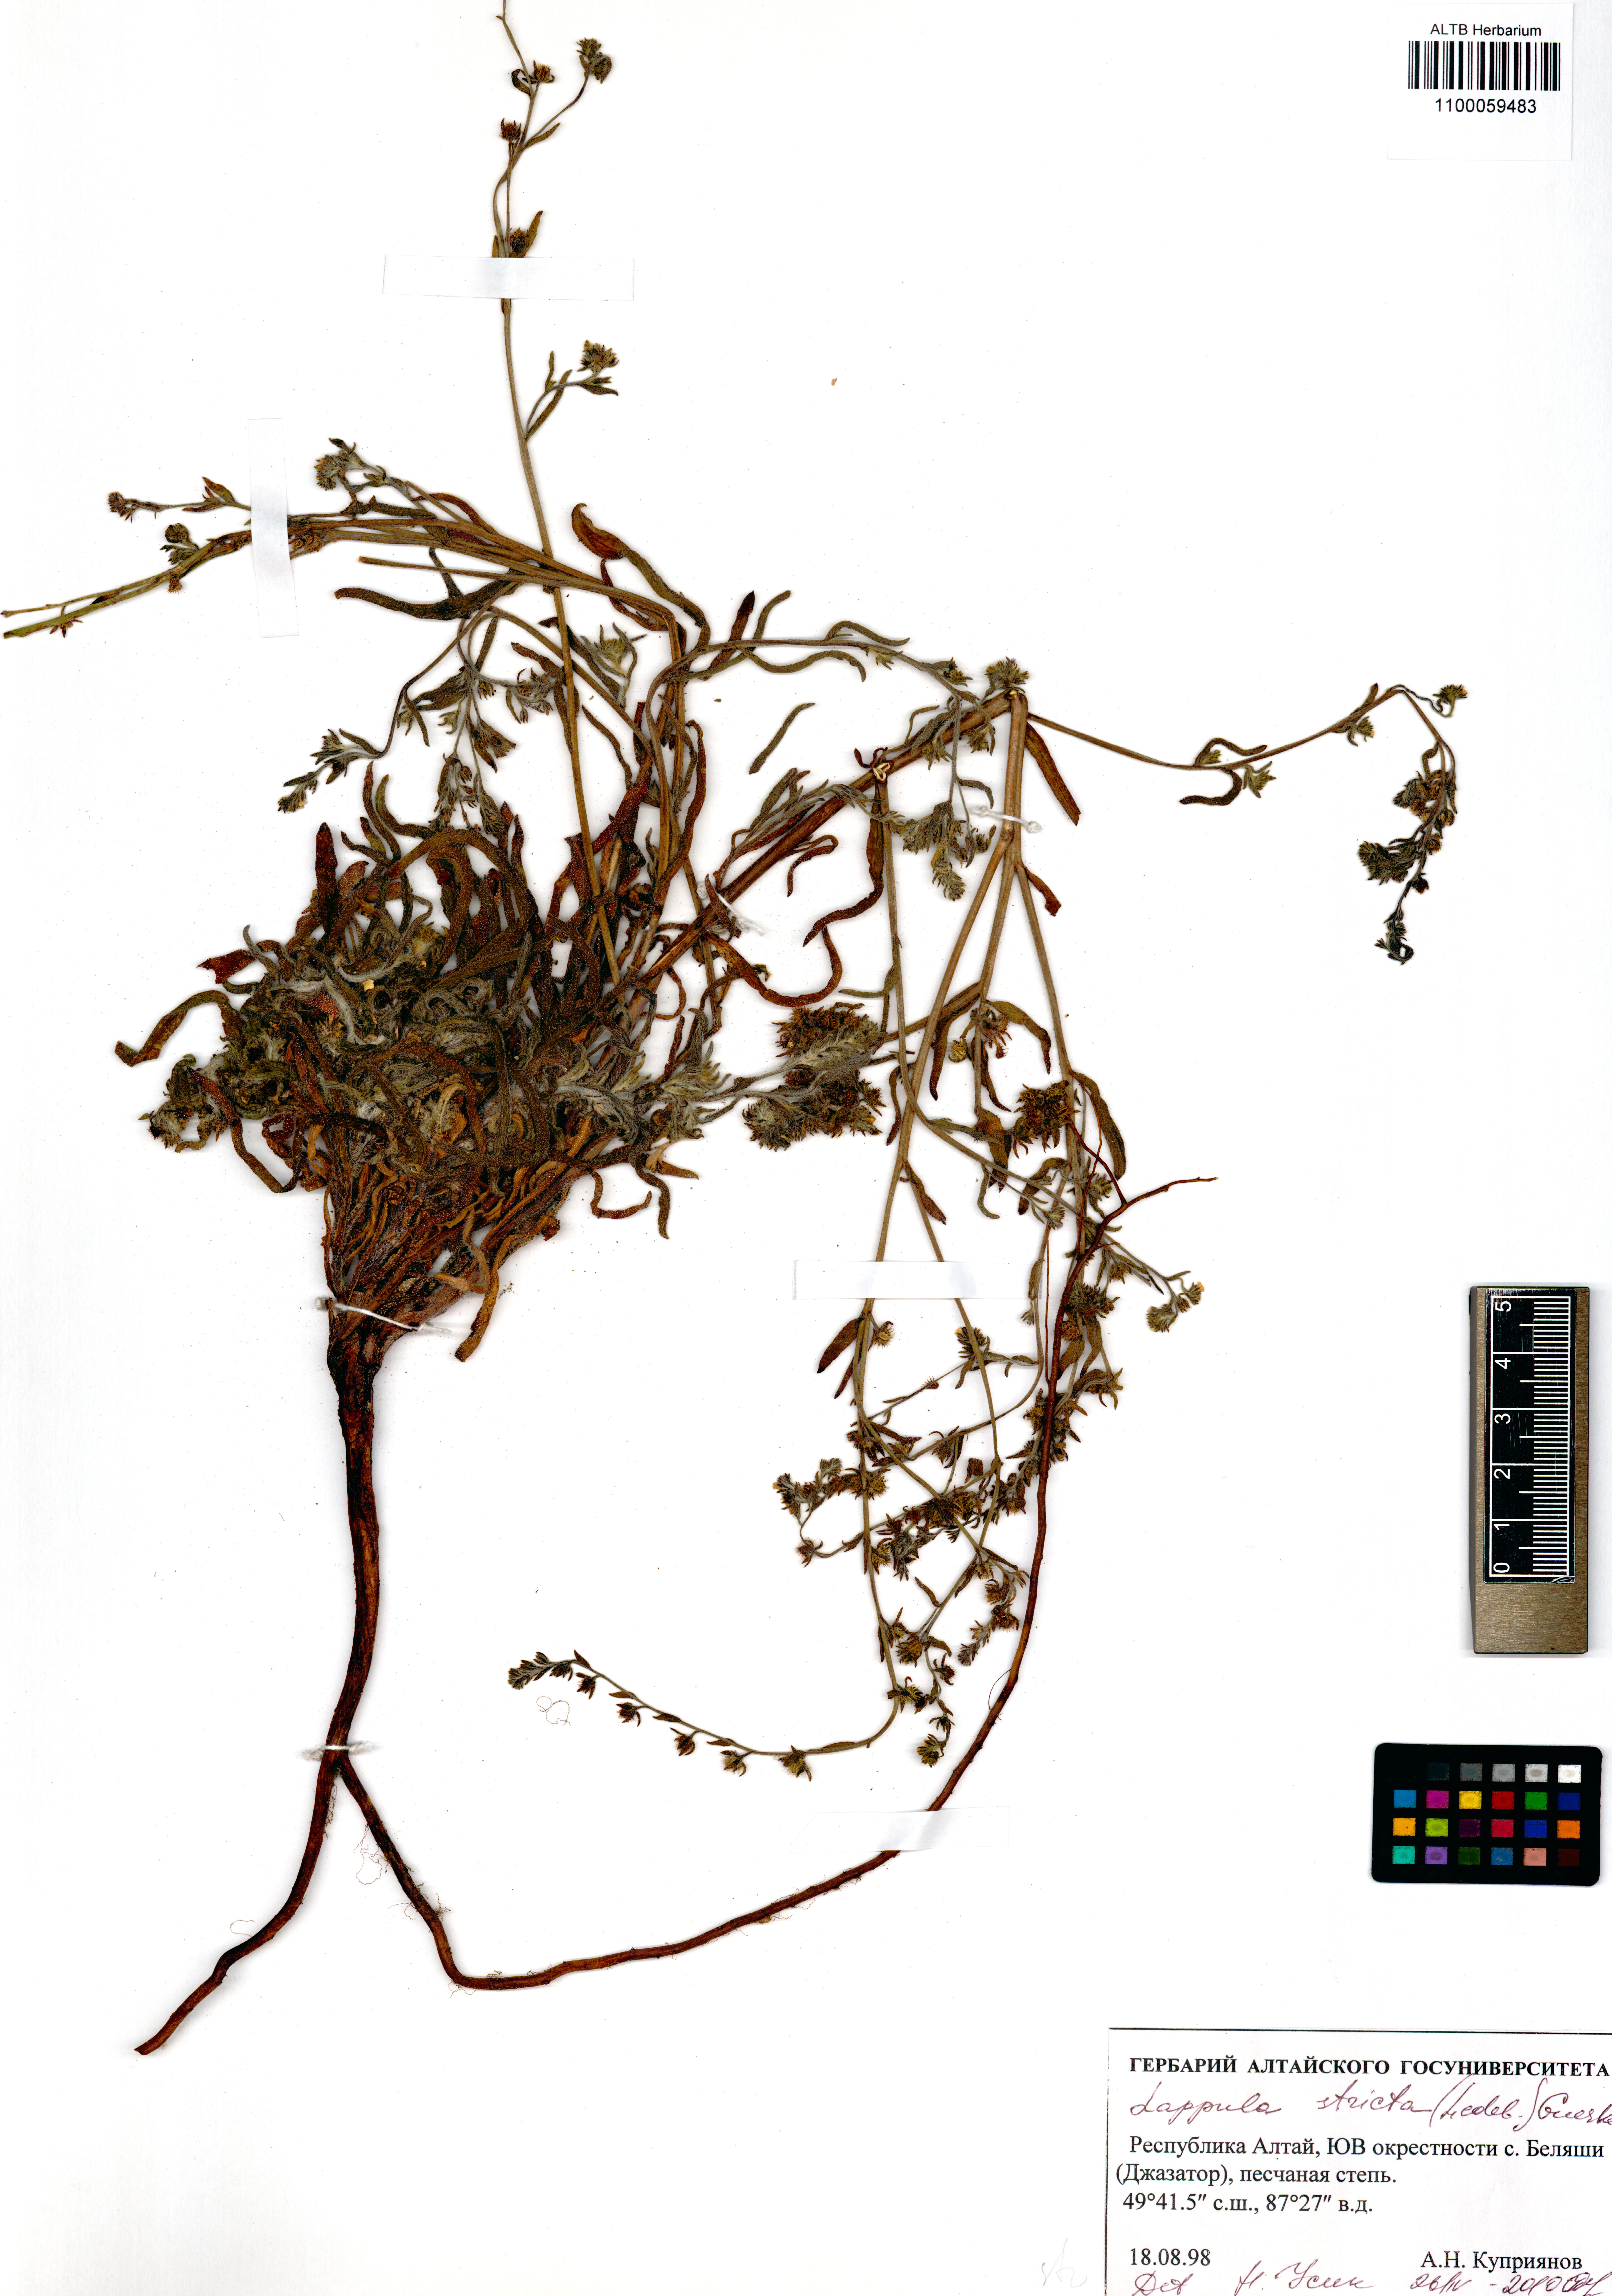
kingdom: Plantae
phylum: Tracheophyta
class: Magnoliopsida
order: Boraginales
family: Boraginaceae
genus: Lappula
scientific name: Lappula stricta
